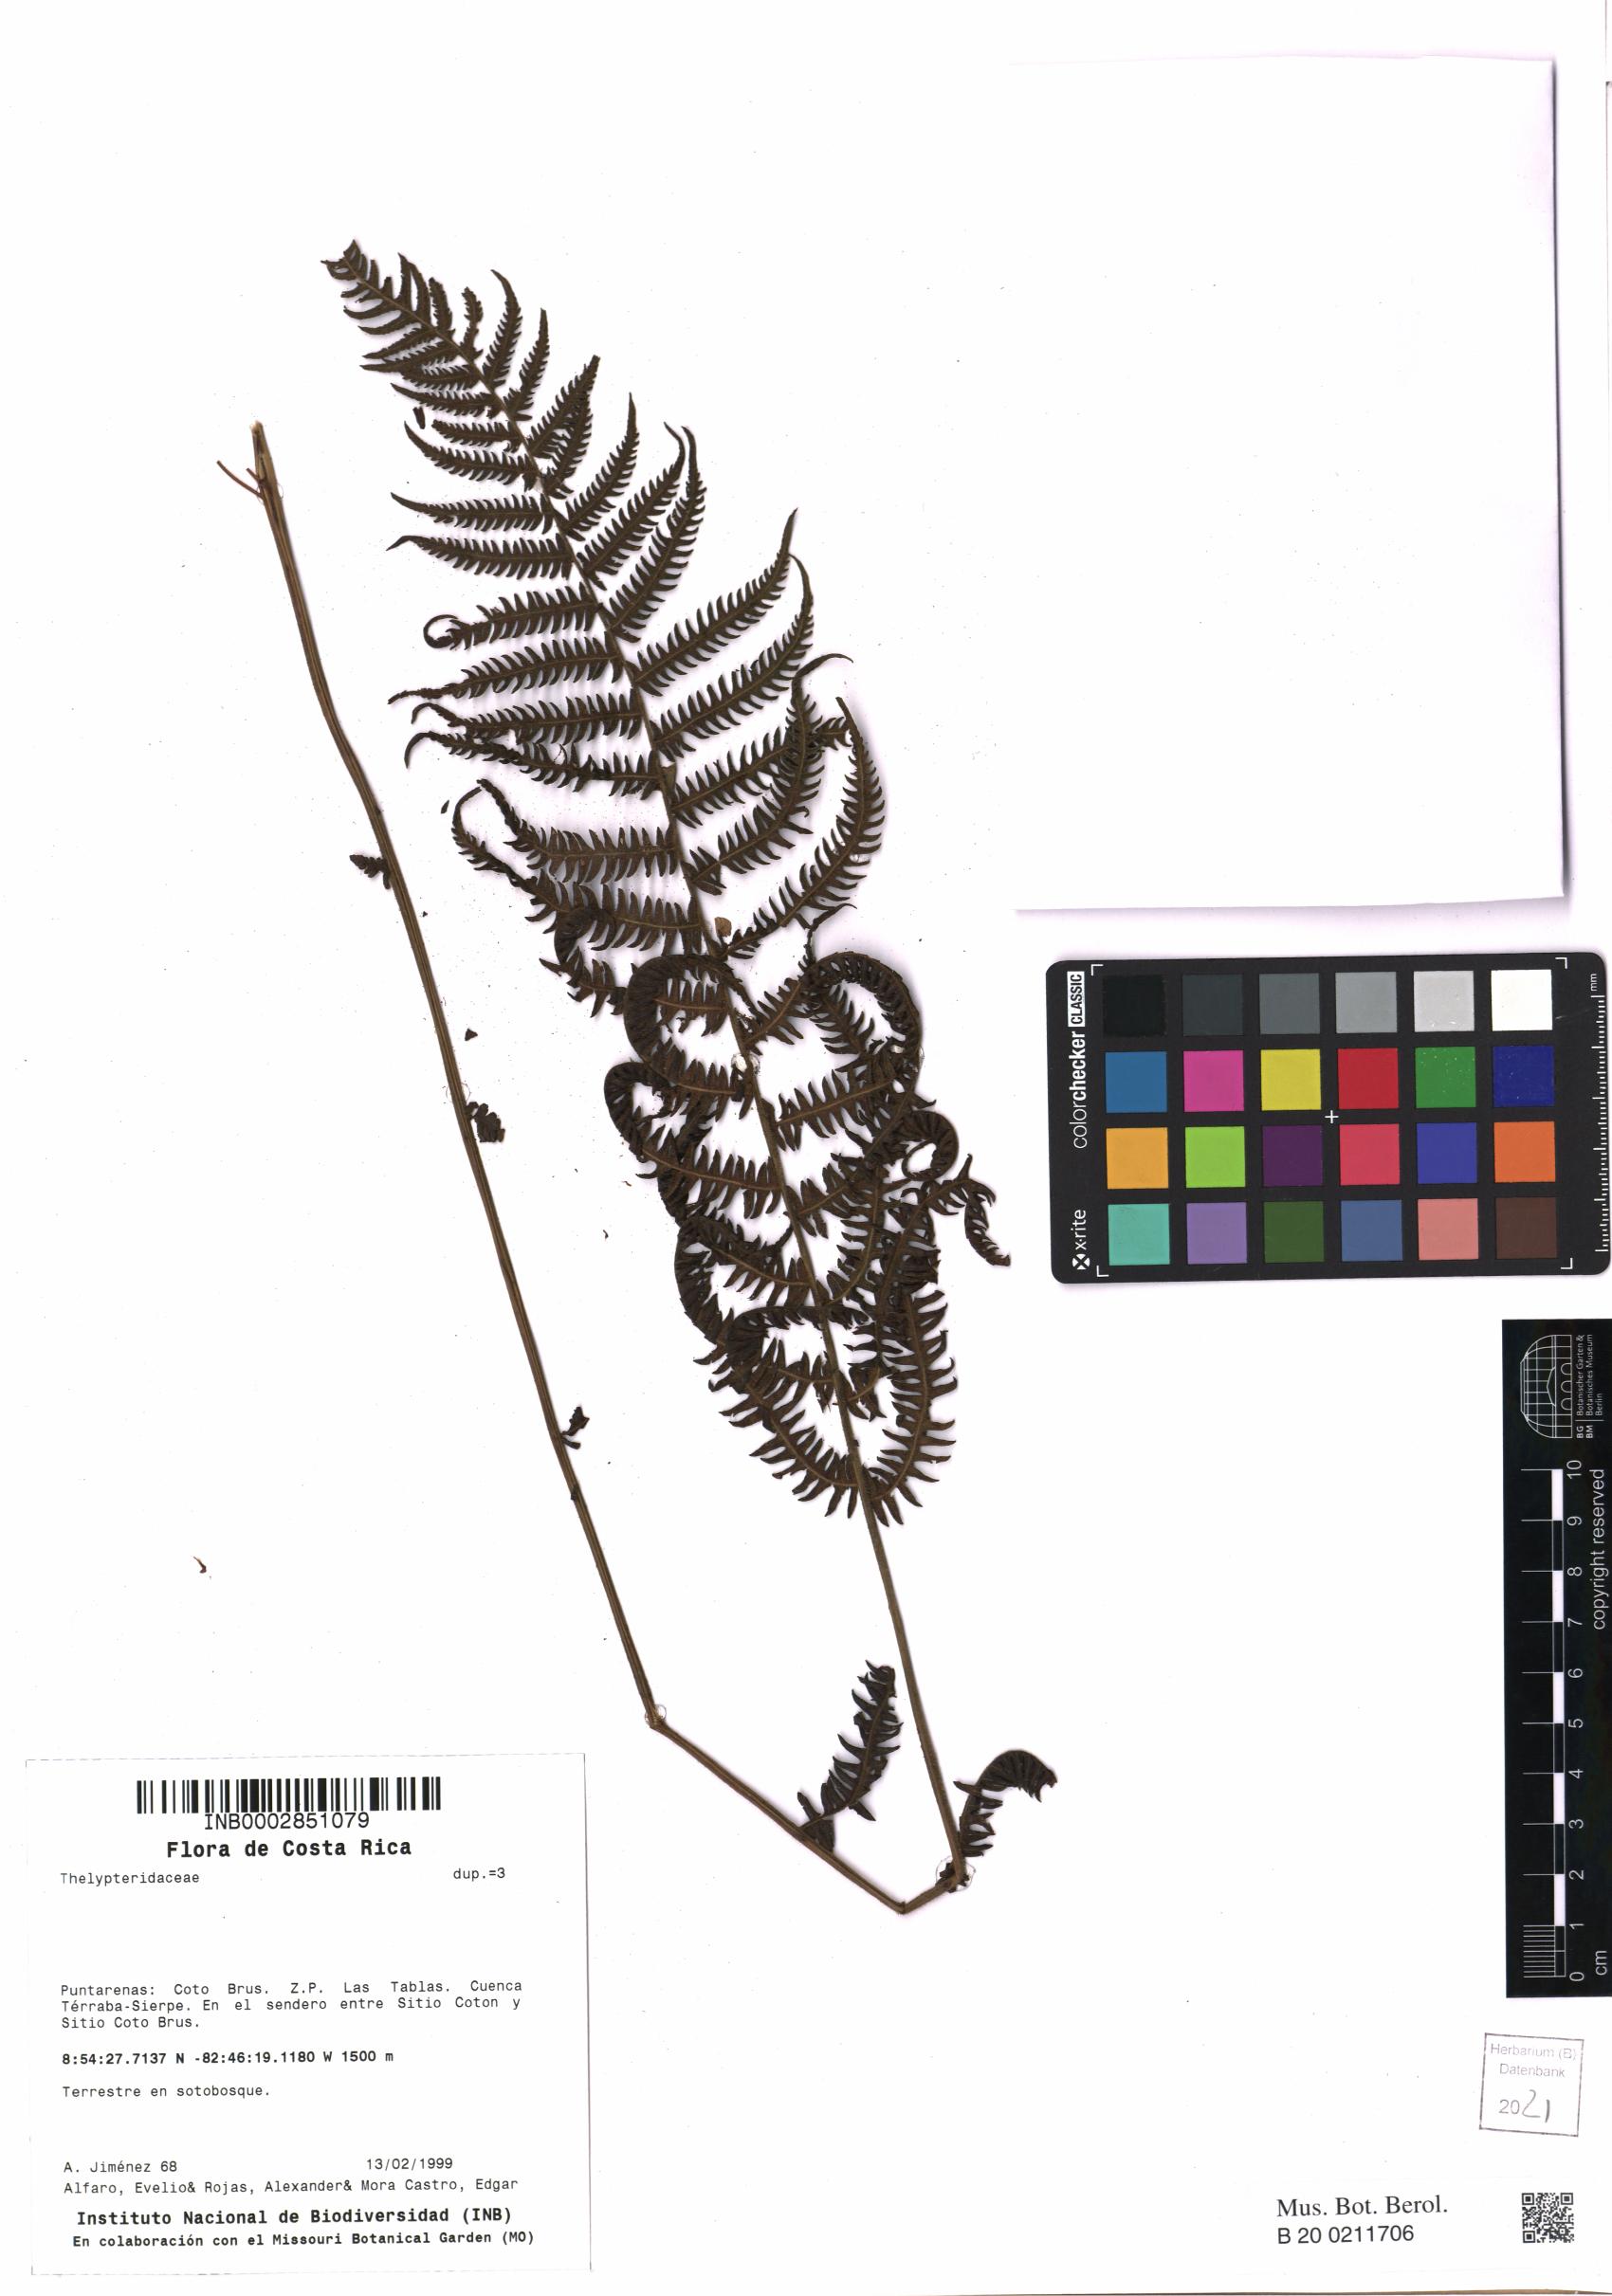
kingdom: Plantae
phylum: Tracheophyta
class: Polypodiopsida
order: Polypodiales
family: Thelypteridaceae
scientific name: Thelypteridaceae
